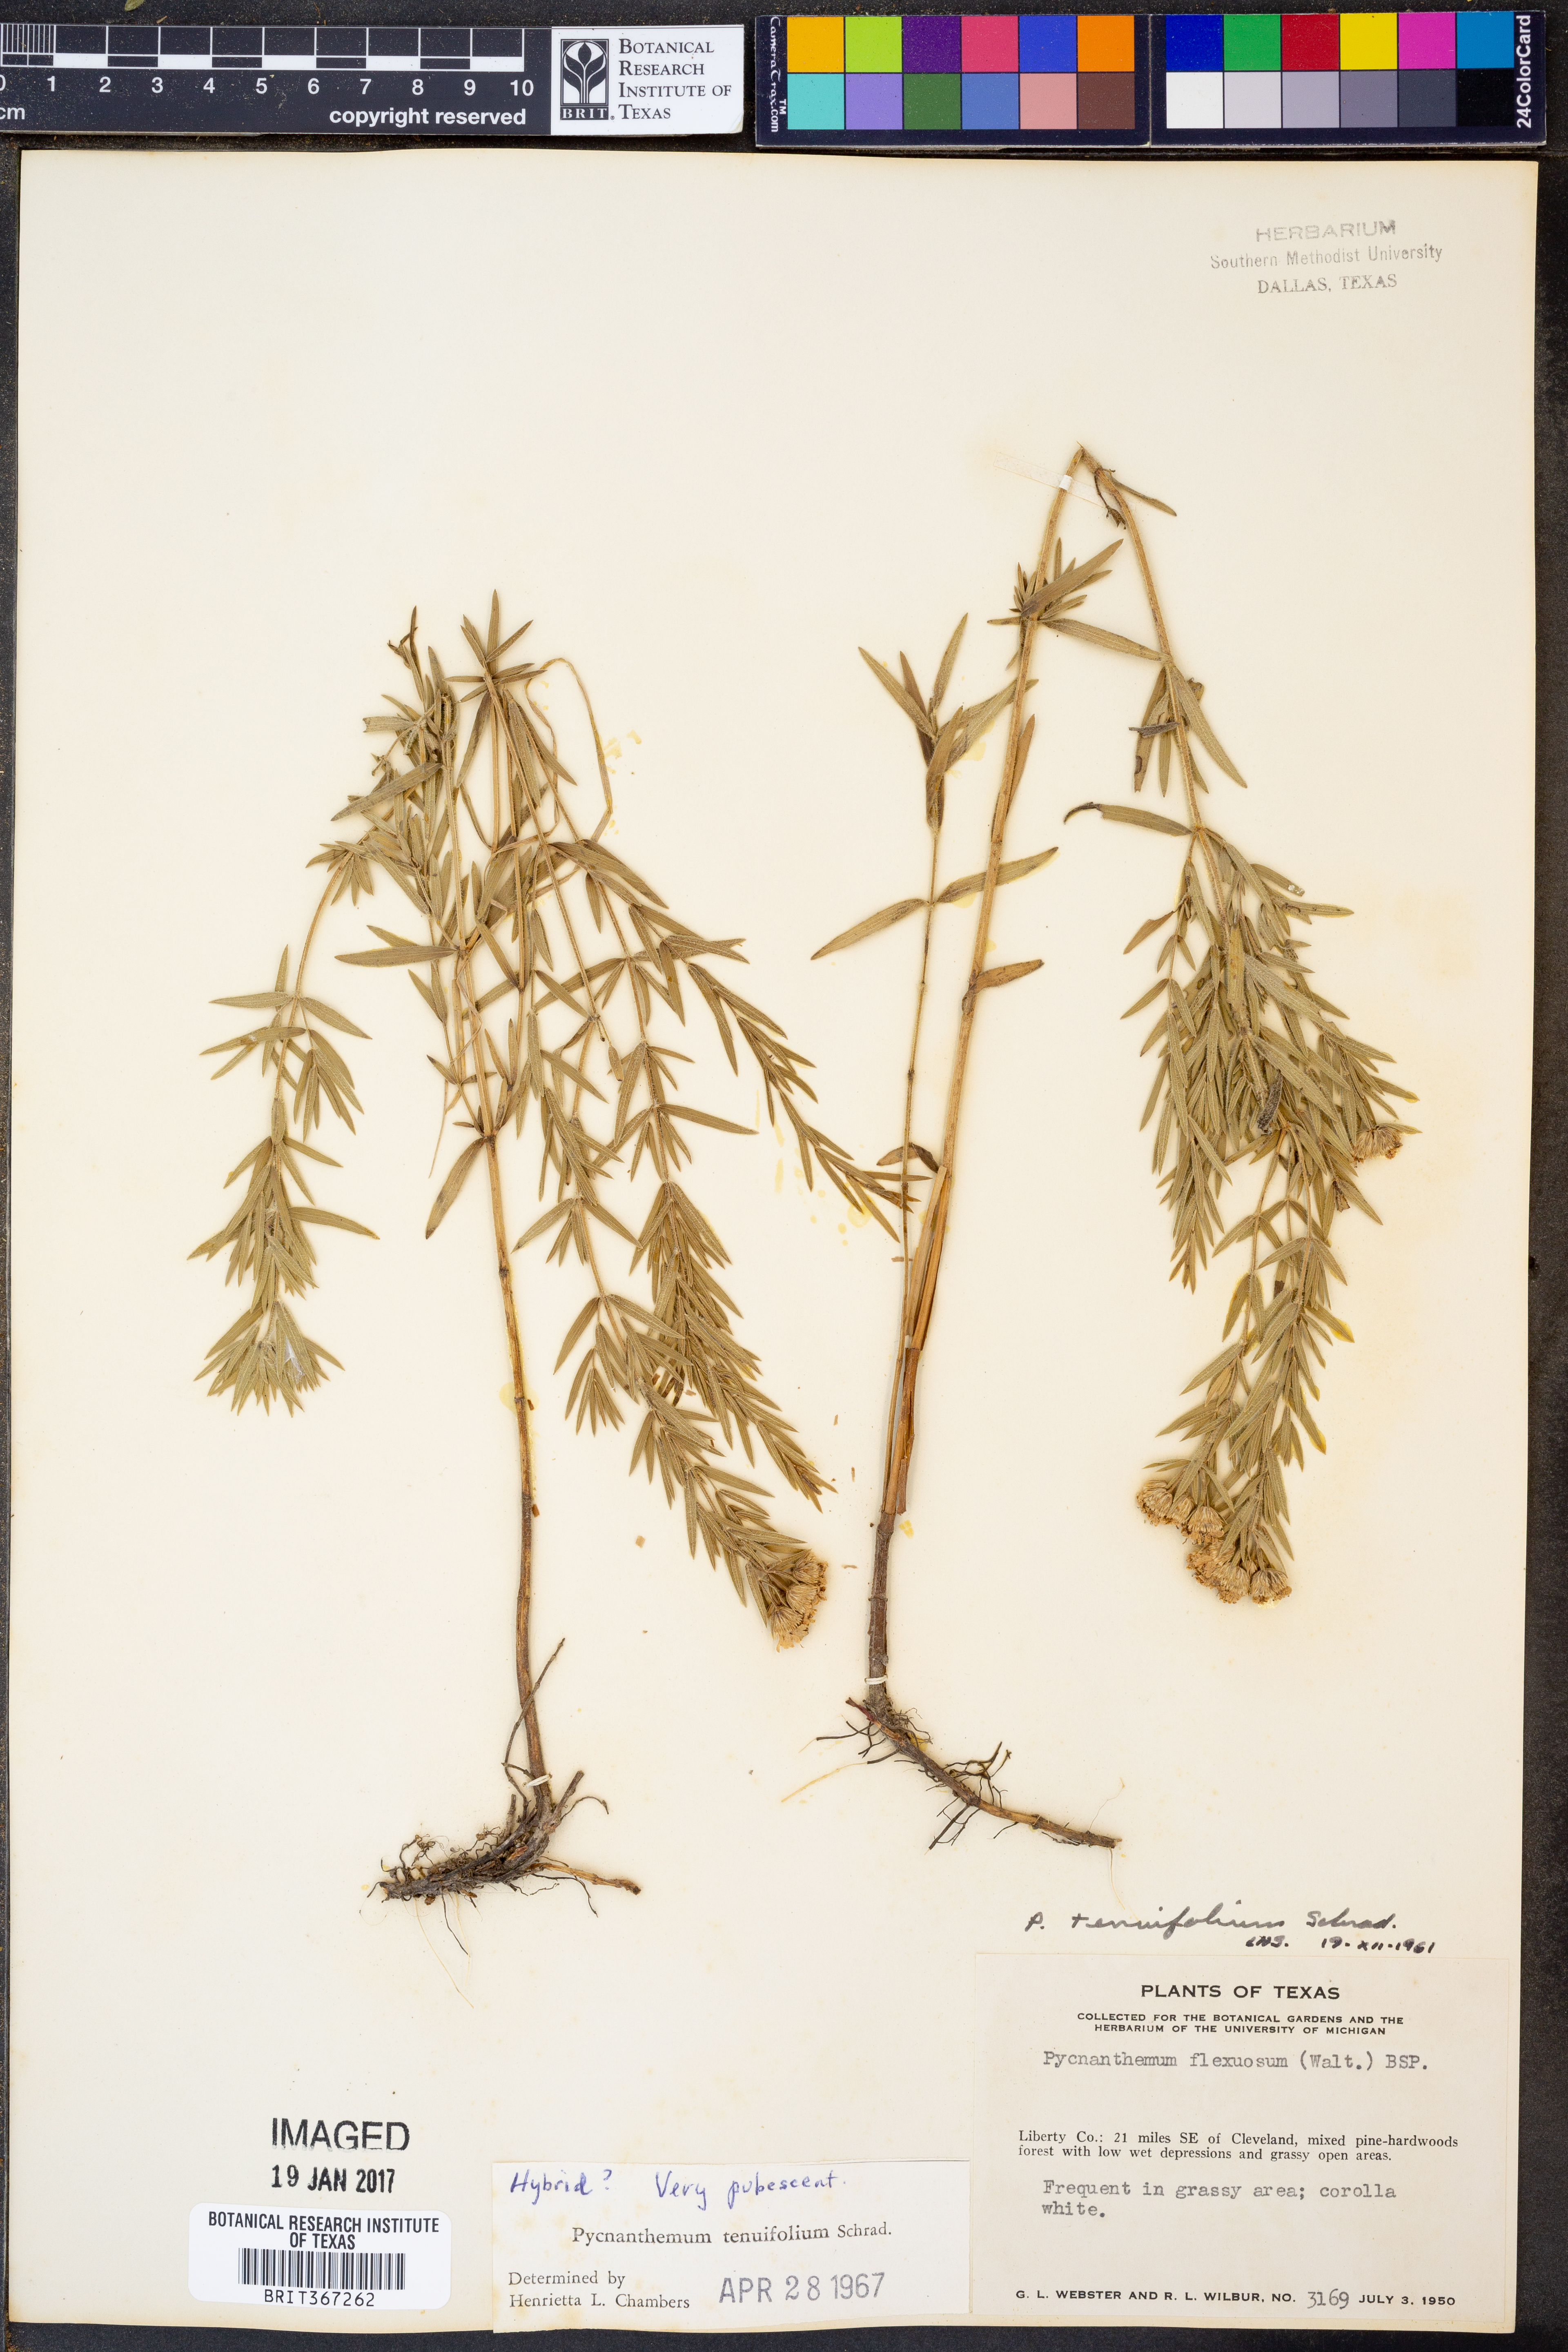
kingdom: Plantae
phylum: Tracheophyta
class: Magnoliopsida
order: Lamiales
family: Lamiaceae
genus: Pycnanthemum
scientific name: Pycnanthemum tenuifolium
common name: Narrow-leaf mountain-mint
